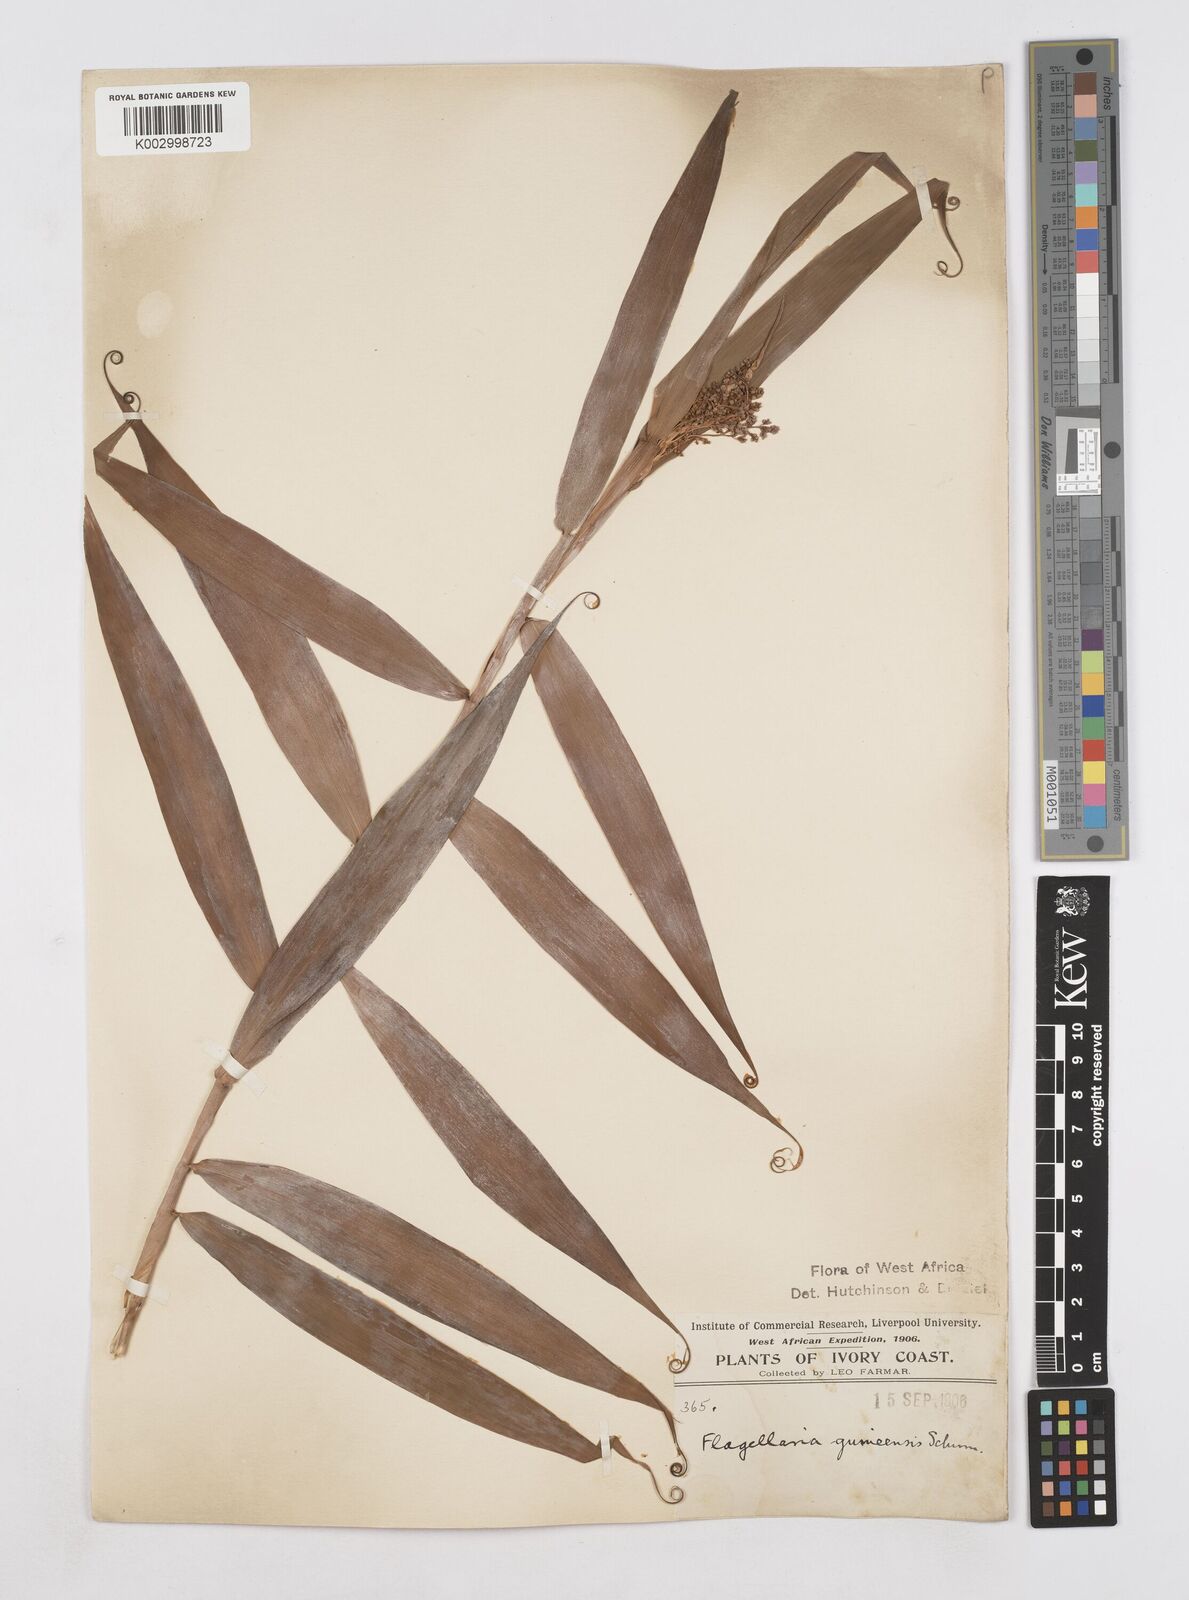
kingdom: Plantae
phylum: Tracheophyta
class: Liliopsida
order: Poales
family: Flagellariaceae
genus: Flagellaria
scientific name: Flagellaria guineensis
